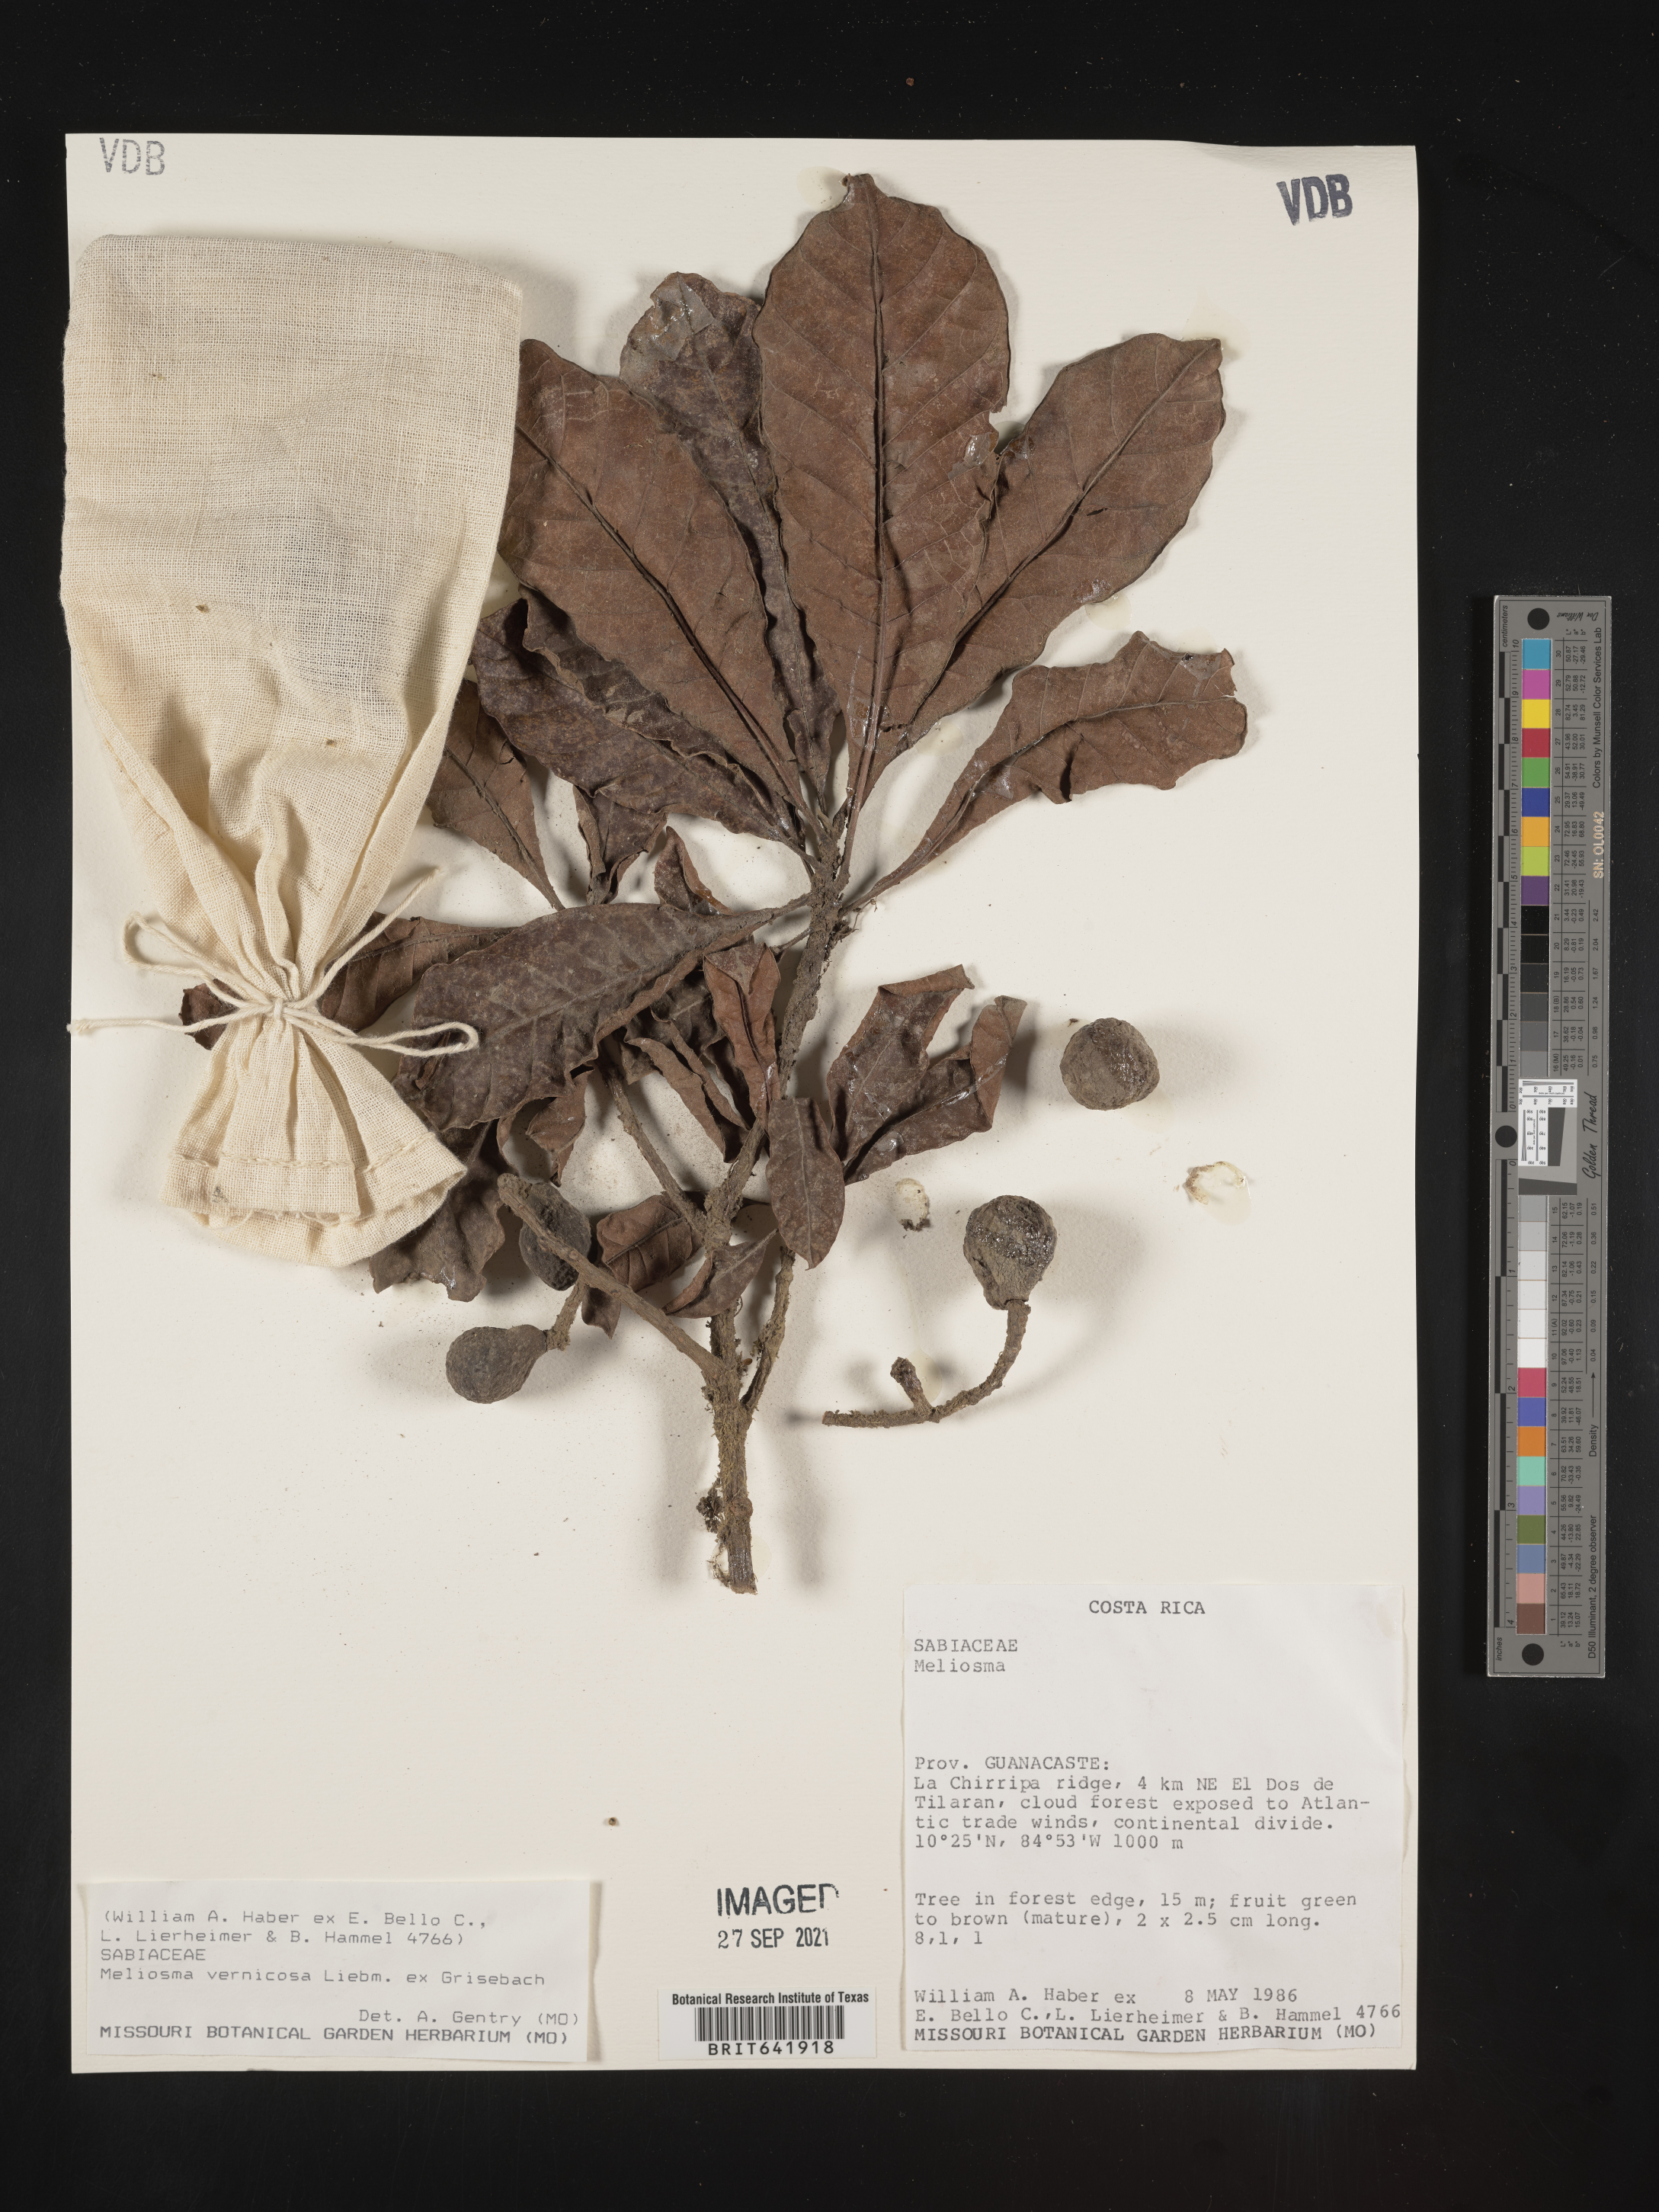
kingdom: Plantae
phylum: Tracheophyta
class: Magnoliopsida
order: Proteales
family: Sabiaceae
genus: Meliosma
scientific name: Meliosma
